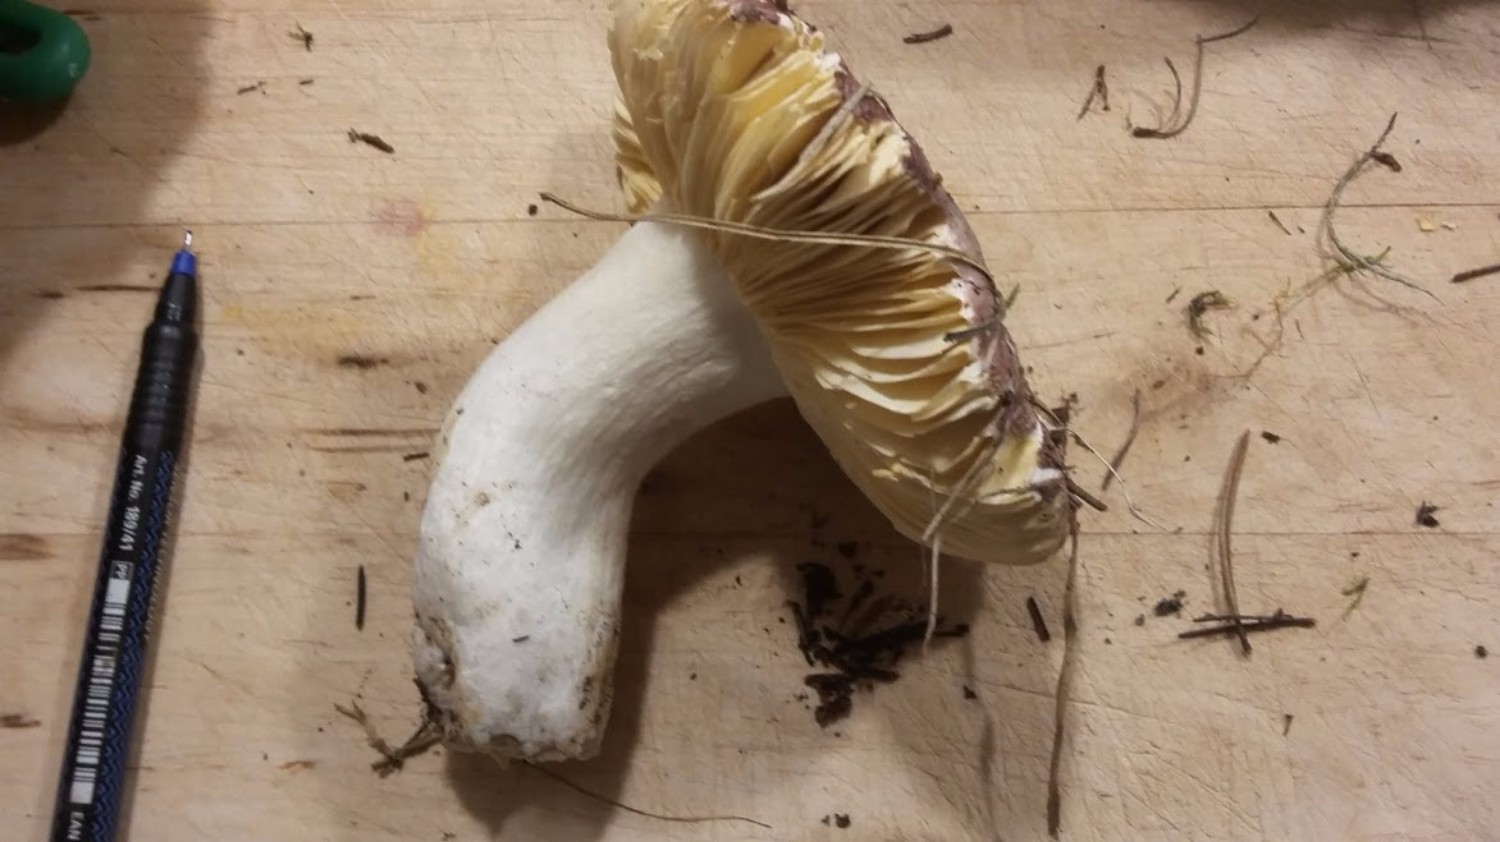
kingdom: Fungi
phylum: Basidiomycota
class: Agaricomycetes
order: Russulales
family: Russulaceae
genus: Russula
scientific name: Russula cessans
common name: fyrre-skørhat
